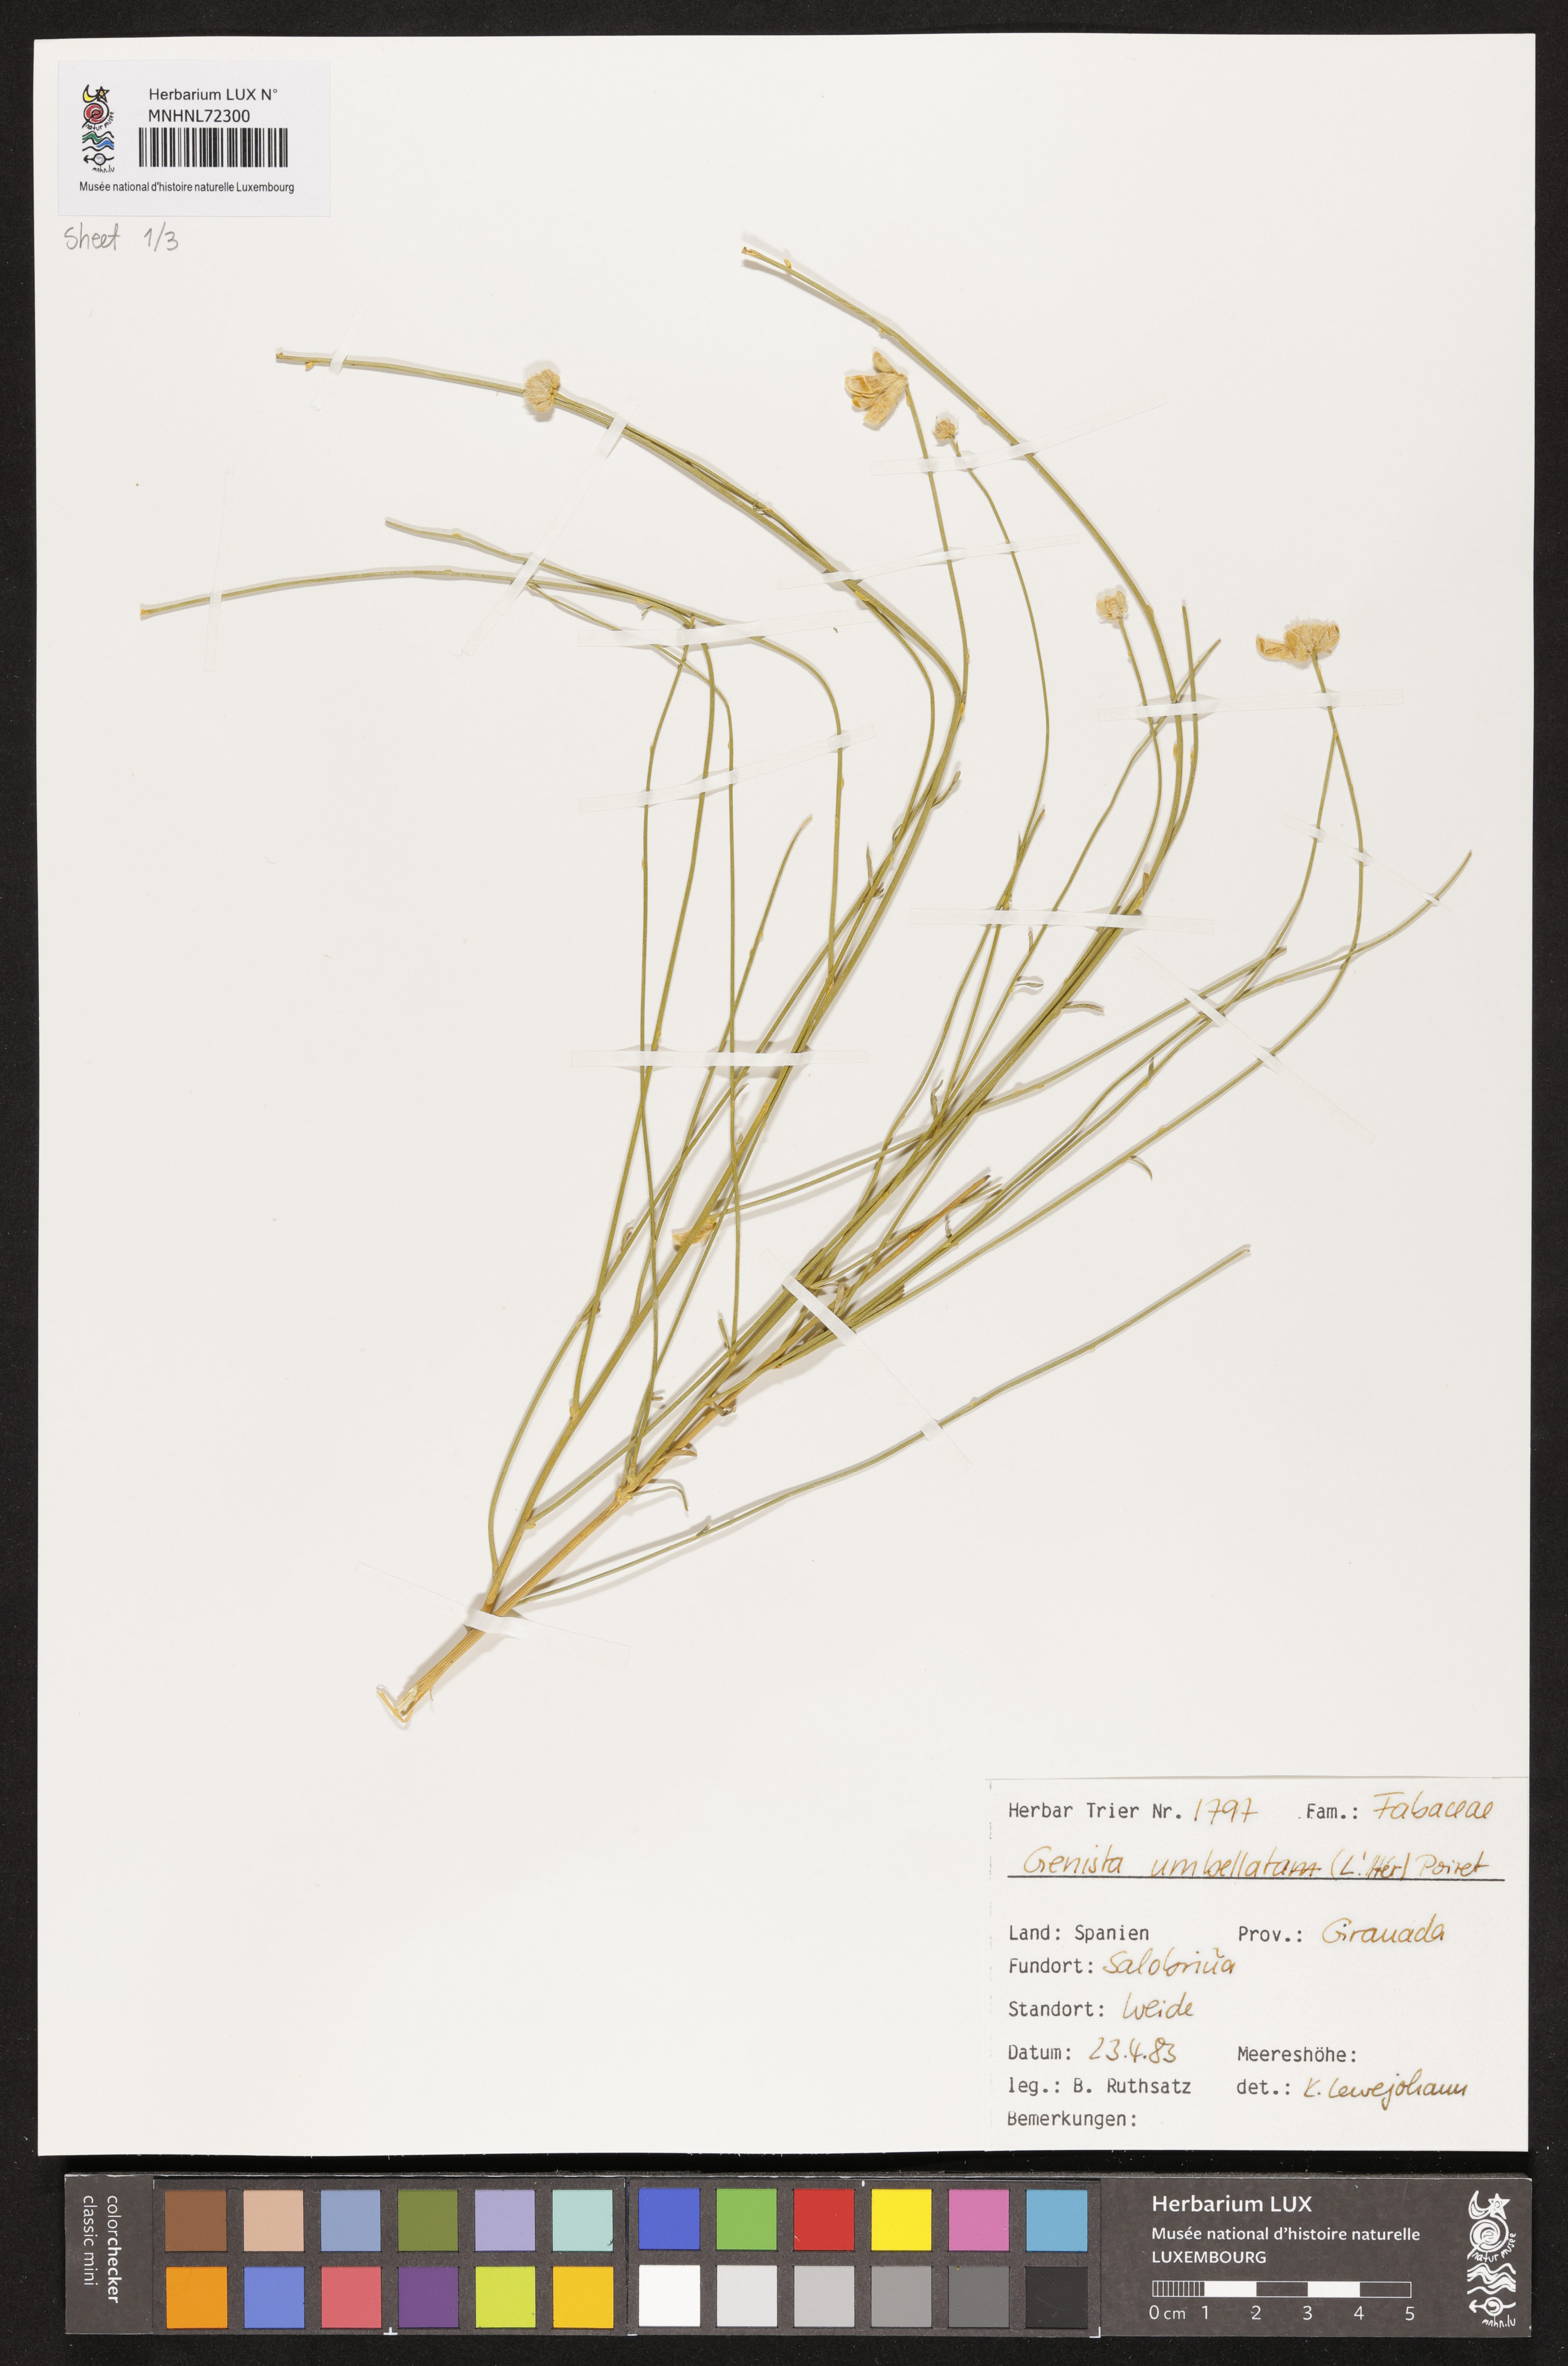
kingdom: Plantae
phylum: Tracheophyta
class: Magnoliopsida
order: Fabales
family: Fabaceae
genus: Genista
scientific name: Genista umbellata
